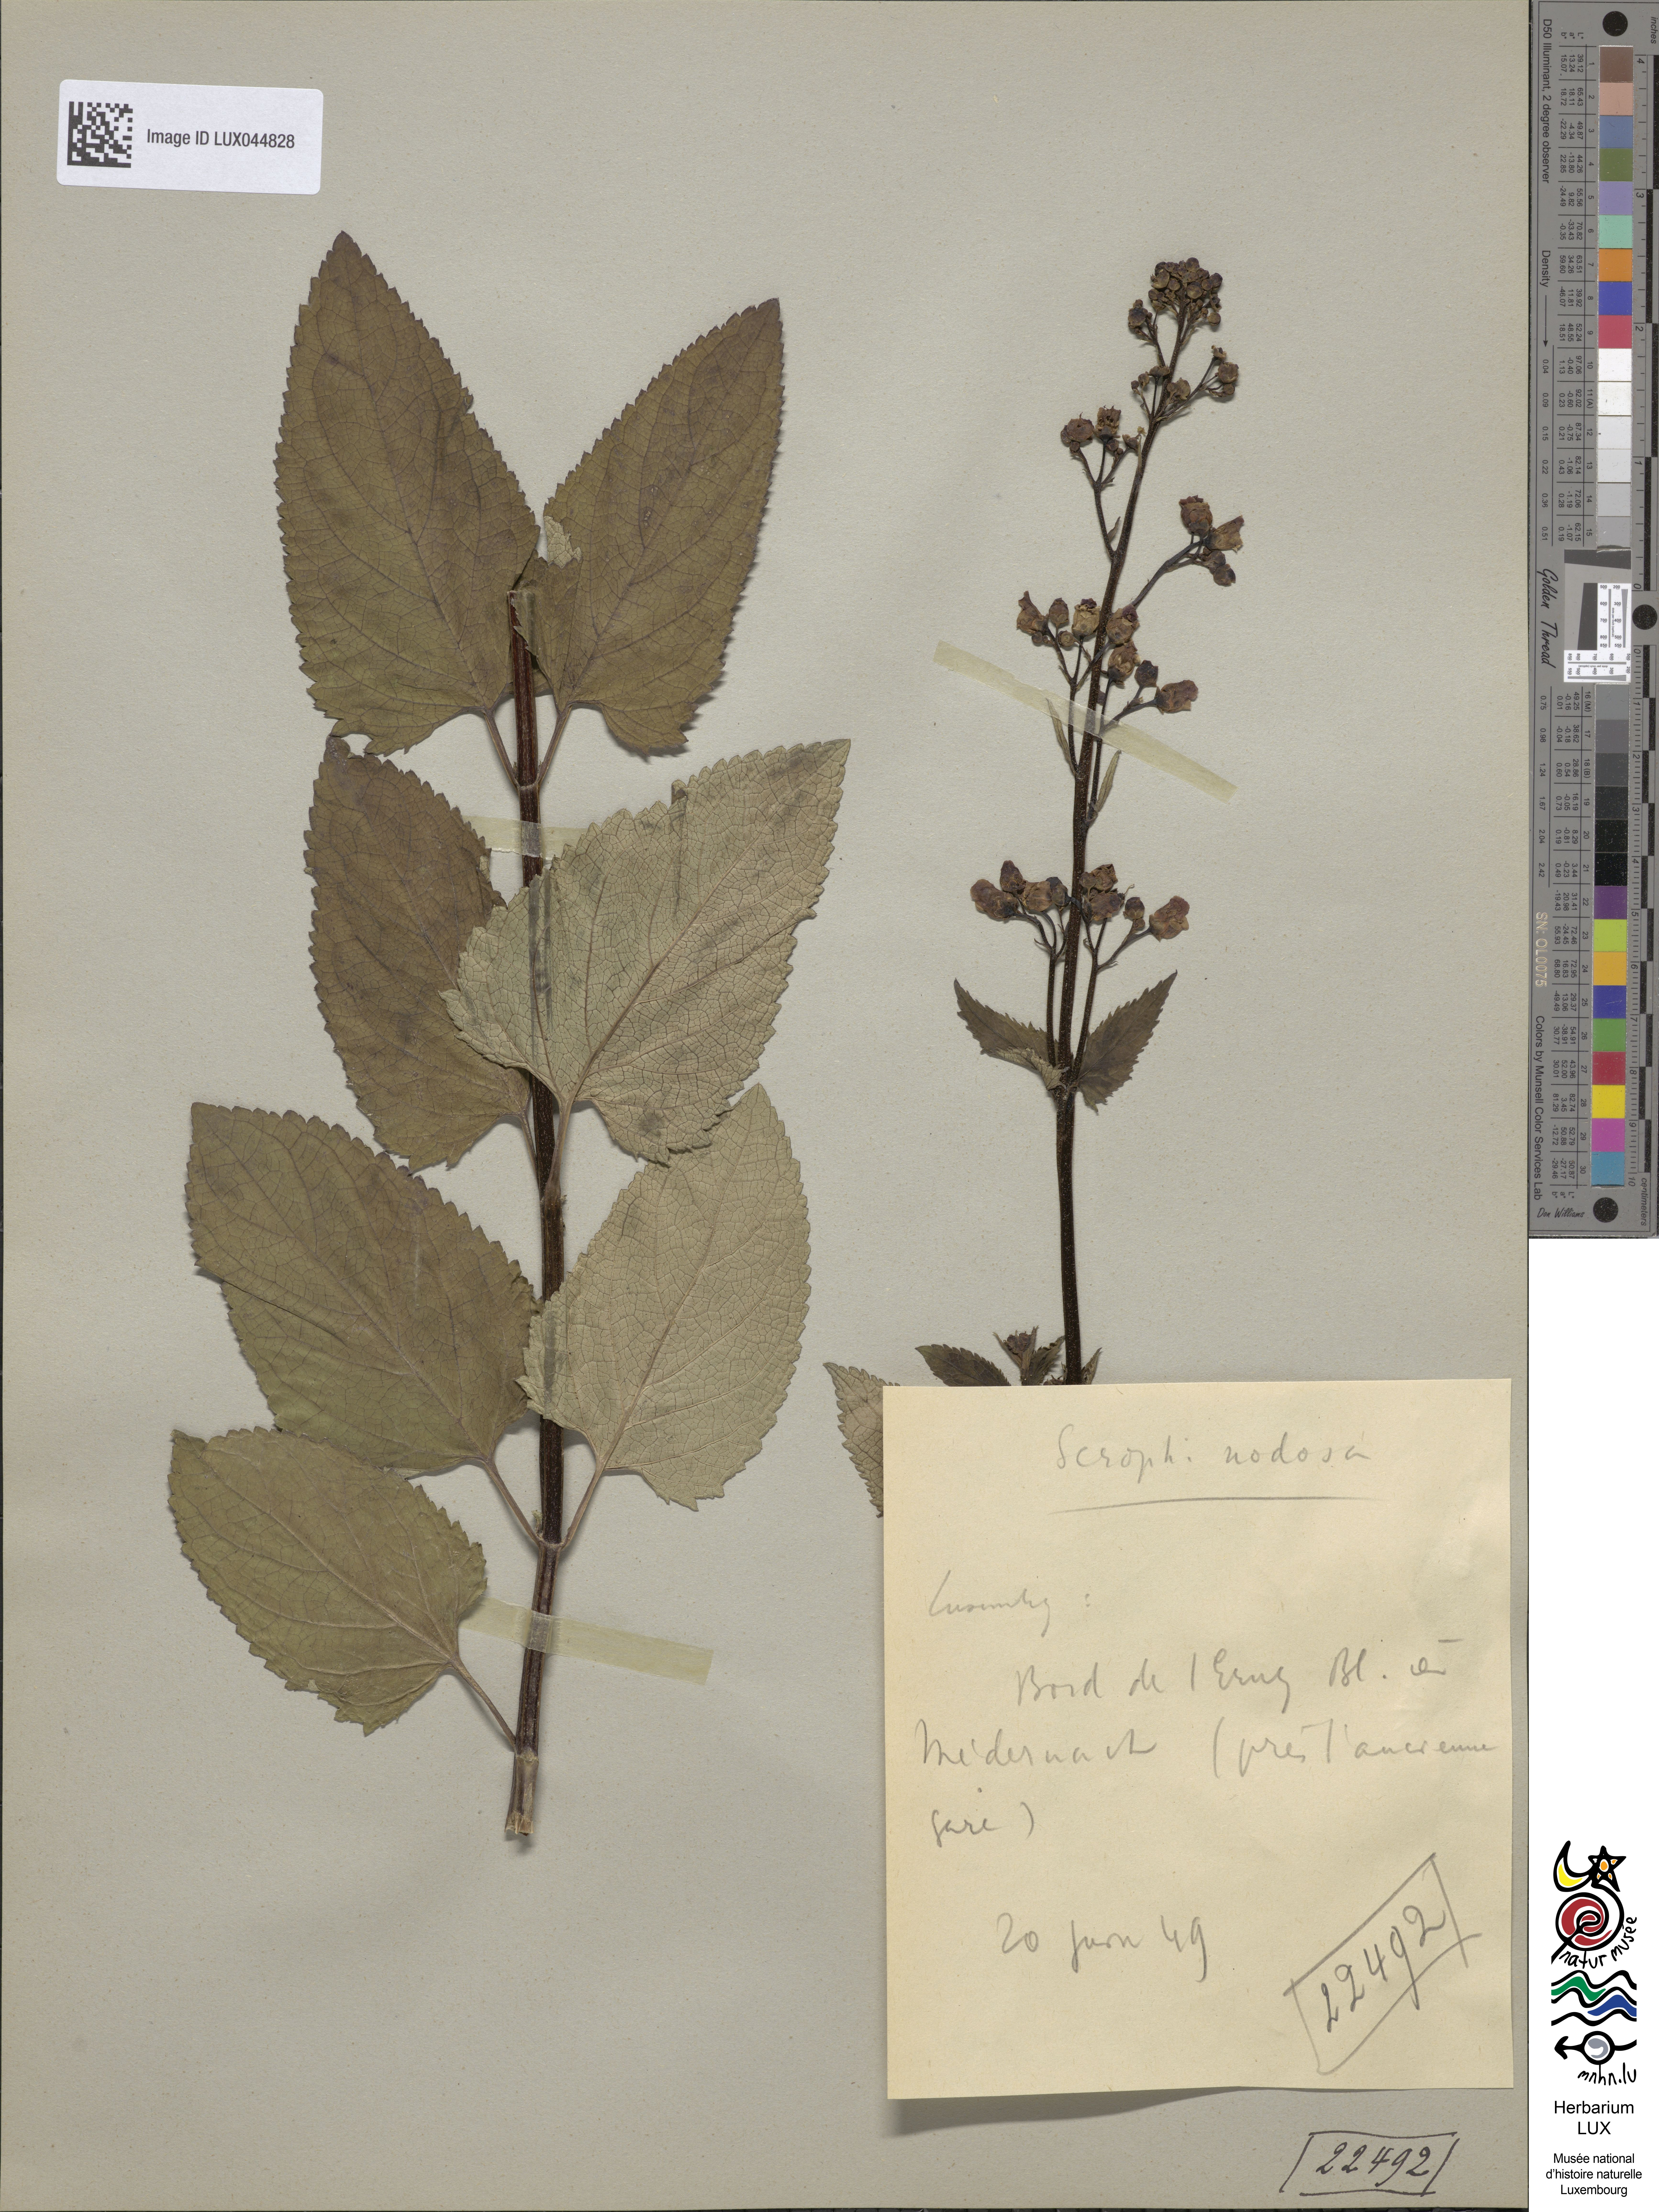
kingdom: Plantae
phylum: Tracheophyta
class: Magnoliopsida
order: Lamiales
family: Scrophulariaceae
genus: Scrophularia
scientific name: Scrophularia nodosa
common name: Common figwort
